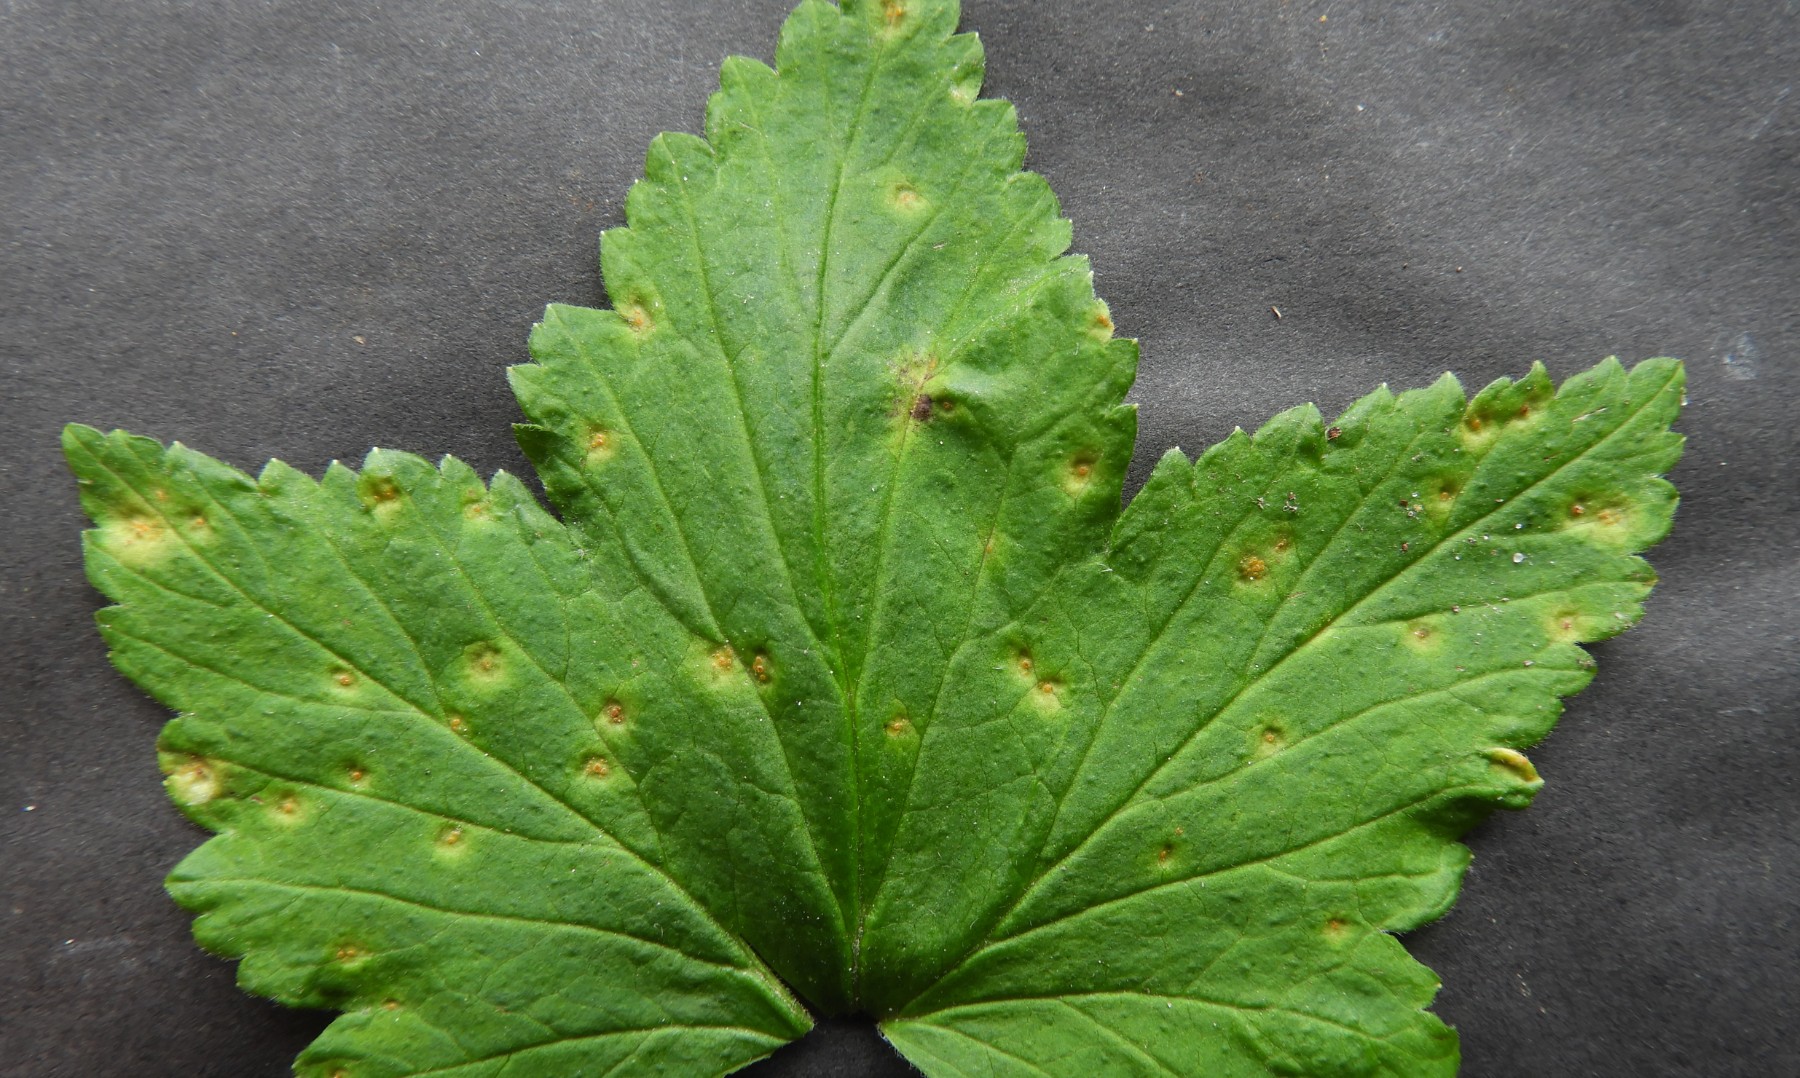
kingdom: Fungi
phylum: Basidiomycota
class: Pucciniomycetes
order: Pucciniales
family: Melampsoraceae
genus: Melampsora
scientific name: Melampsora epitea
